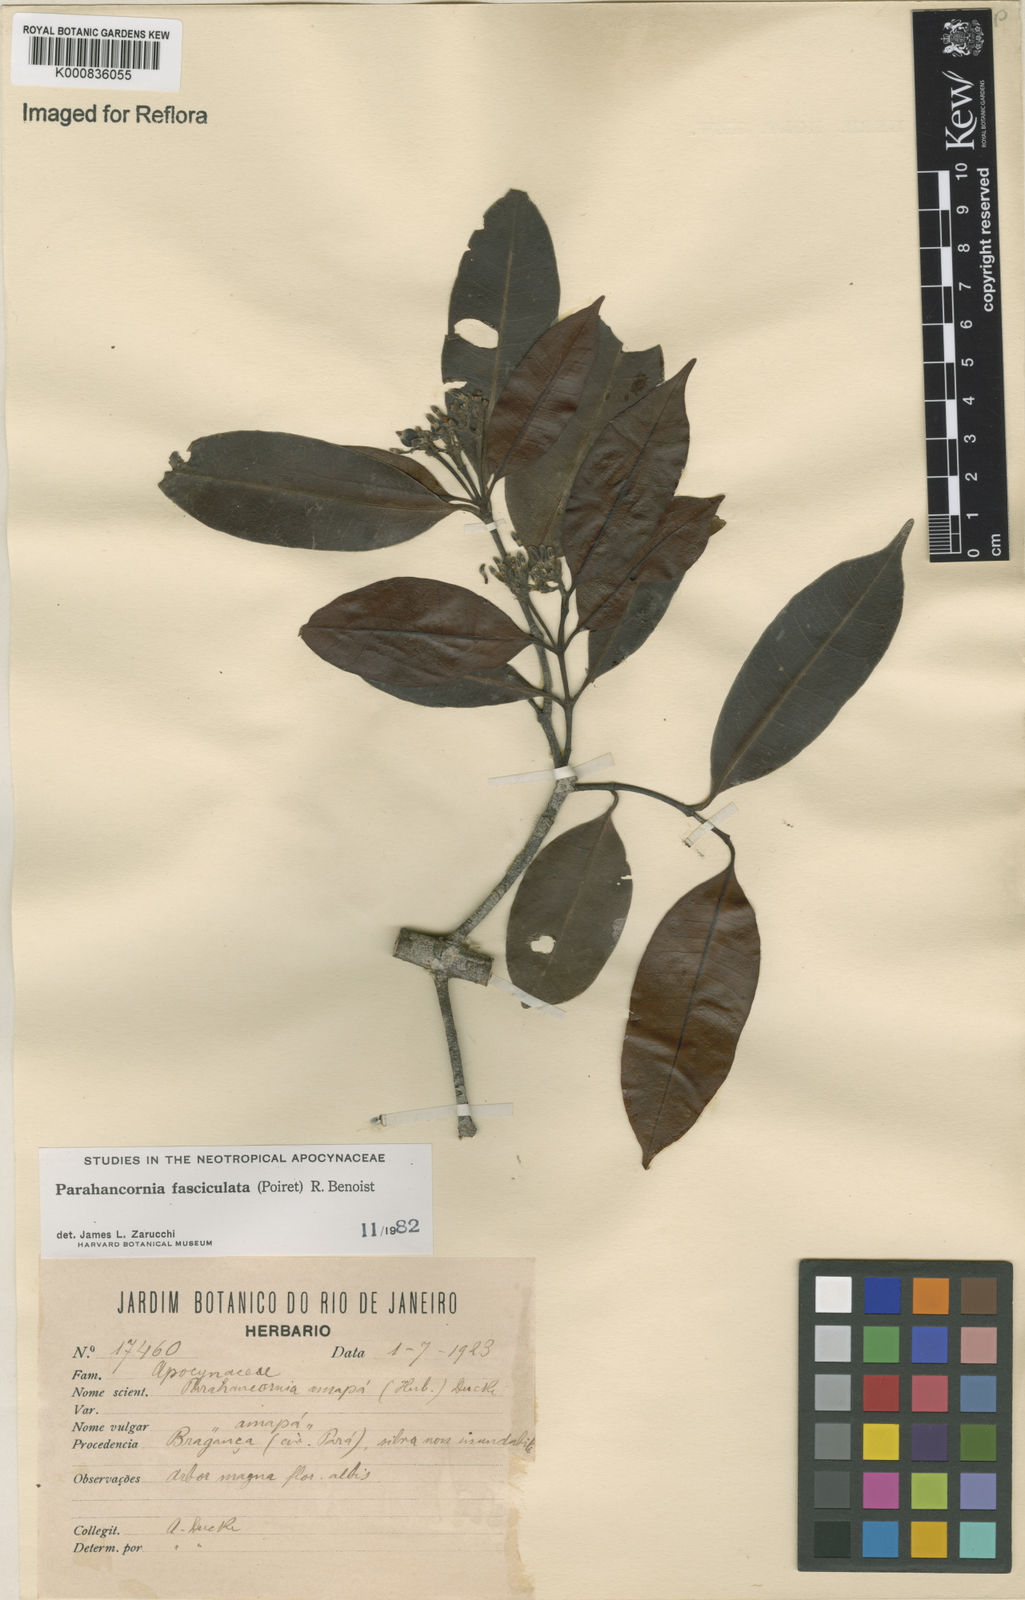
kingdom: Plantae
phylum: Tracheophyta
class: Magnoliopsida
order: Gentianales
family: Apocynaceae
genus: Parahancornia
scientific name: Parahancornia fasciculata
